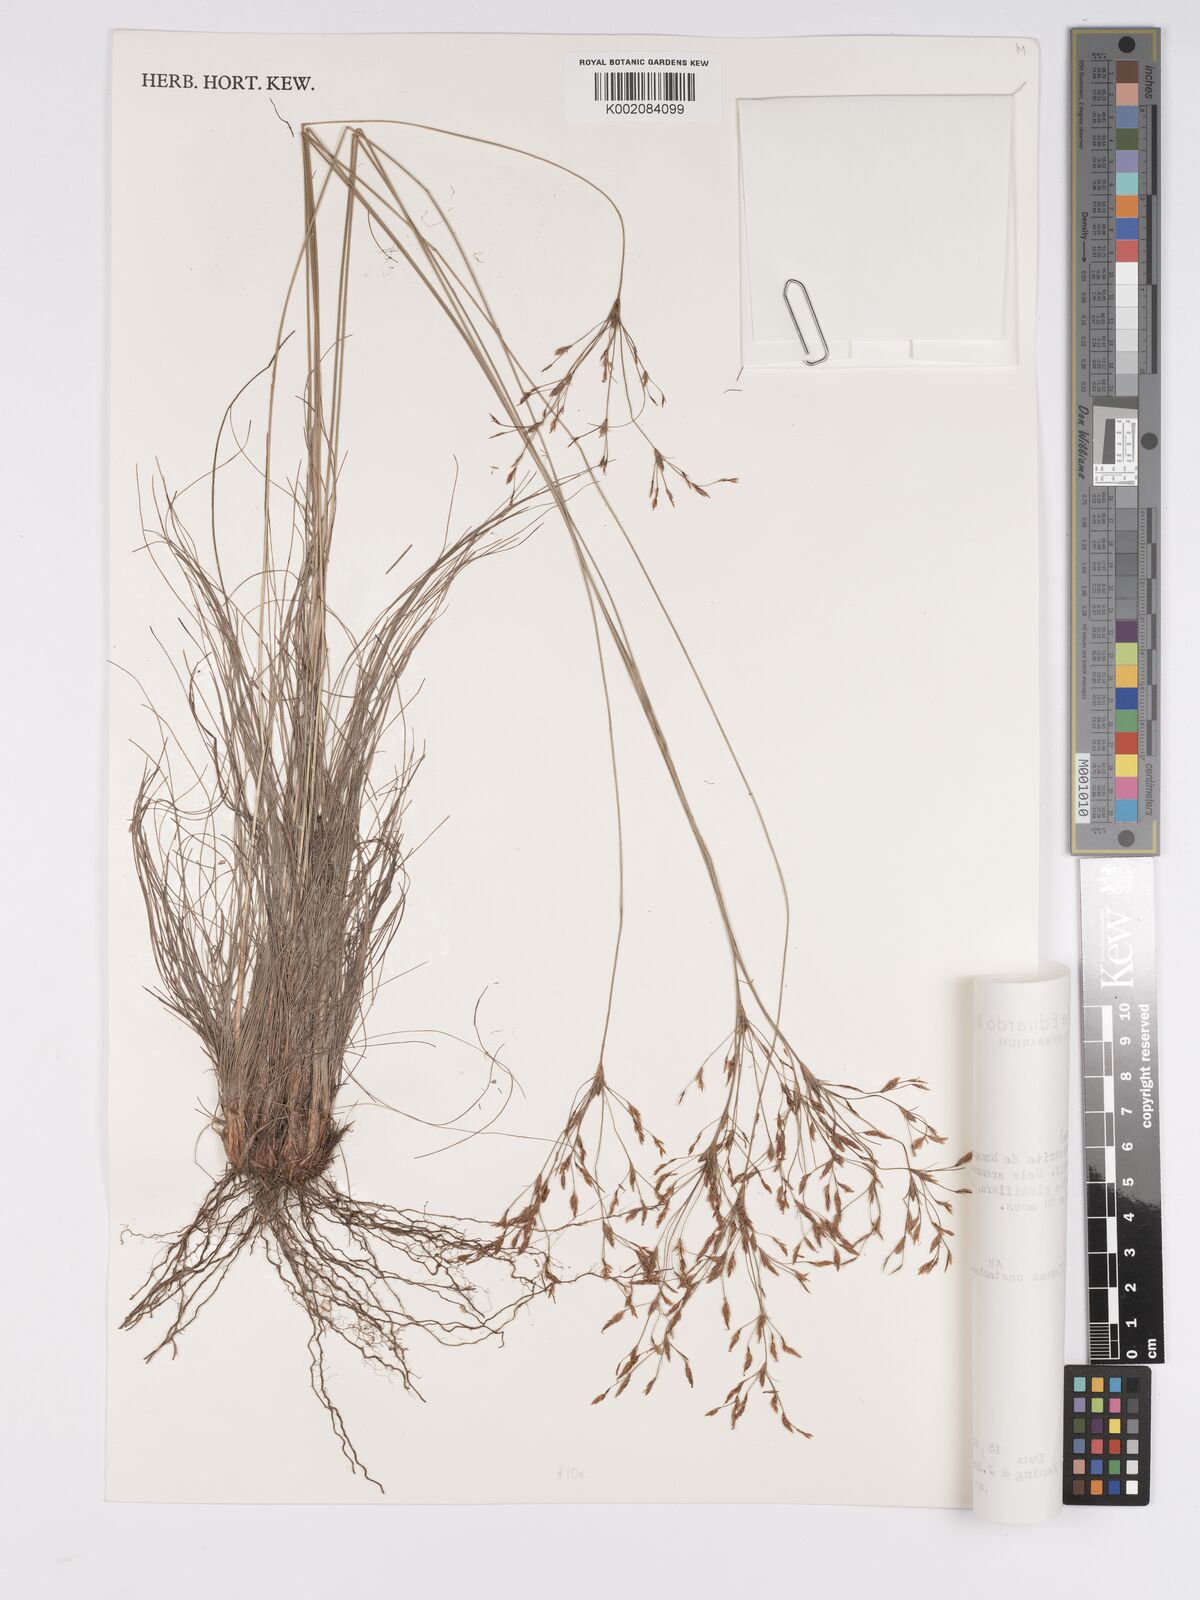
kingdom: Plantae
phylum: Tracheophyta
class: Liliopsida
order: Poales
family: Cyperaceae
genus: Bulbostylis
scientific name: Bulbostylis
